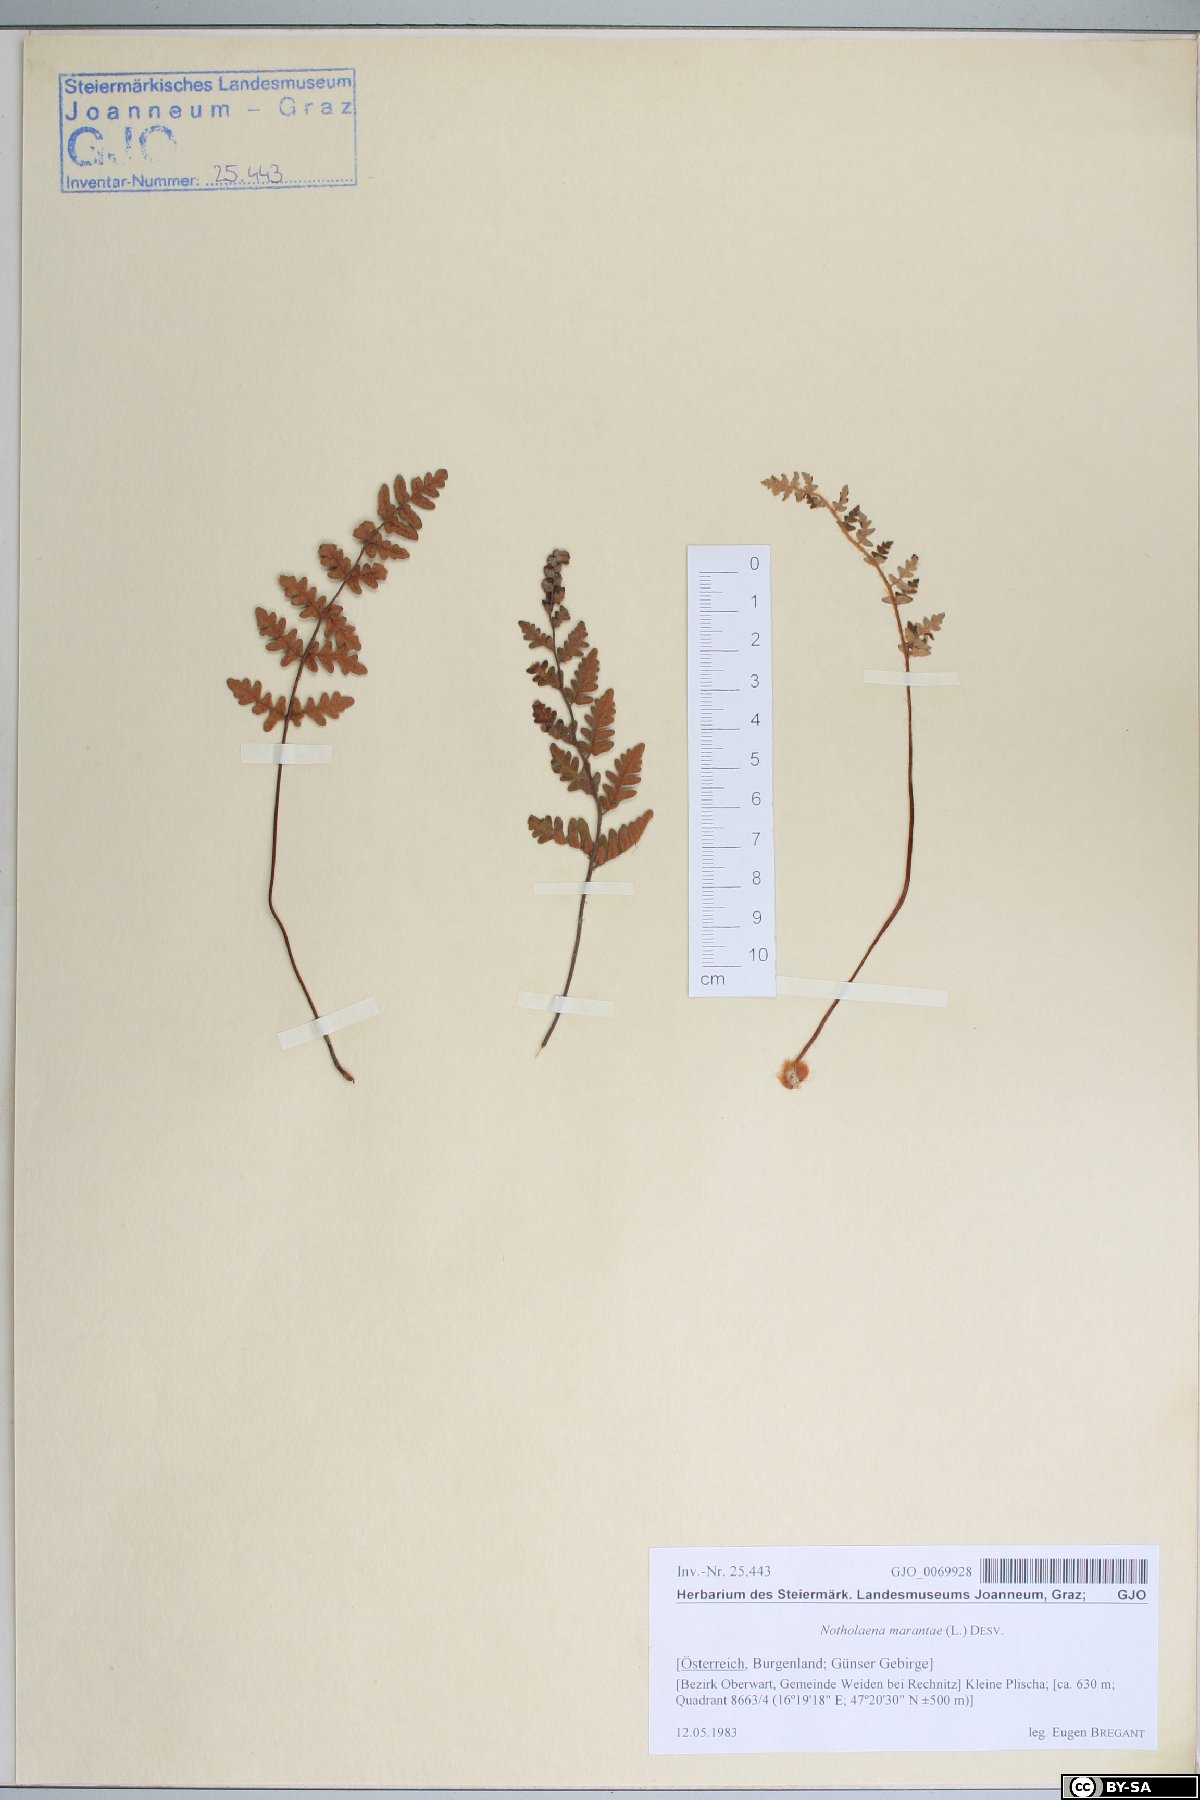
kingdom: Plantae
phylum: Tracheophyta
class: Polypodiopsida
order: Polypodiales
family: Pteridaceae
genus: Paragymnopteris
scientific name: Paragymnopteris marantae
